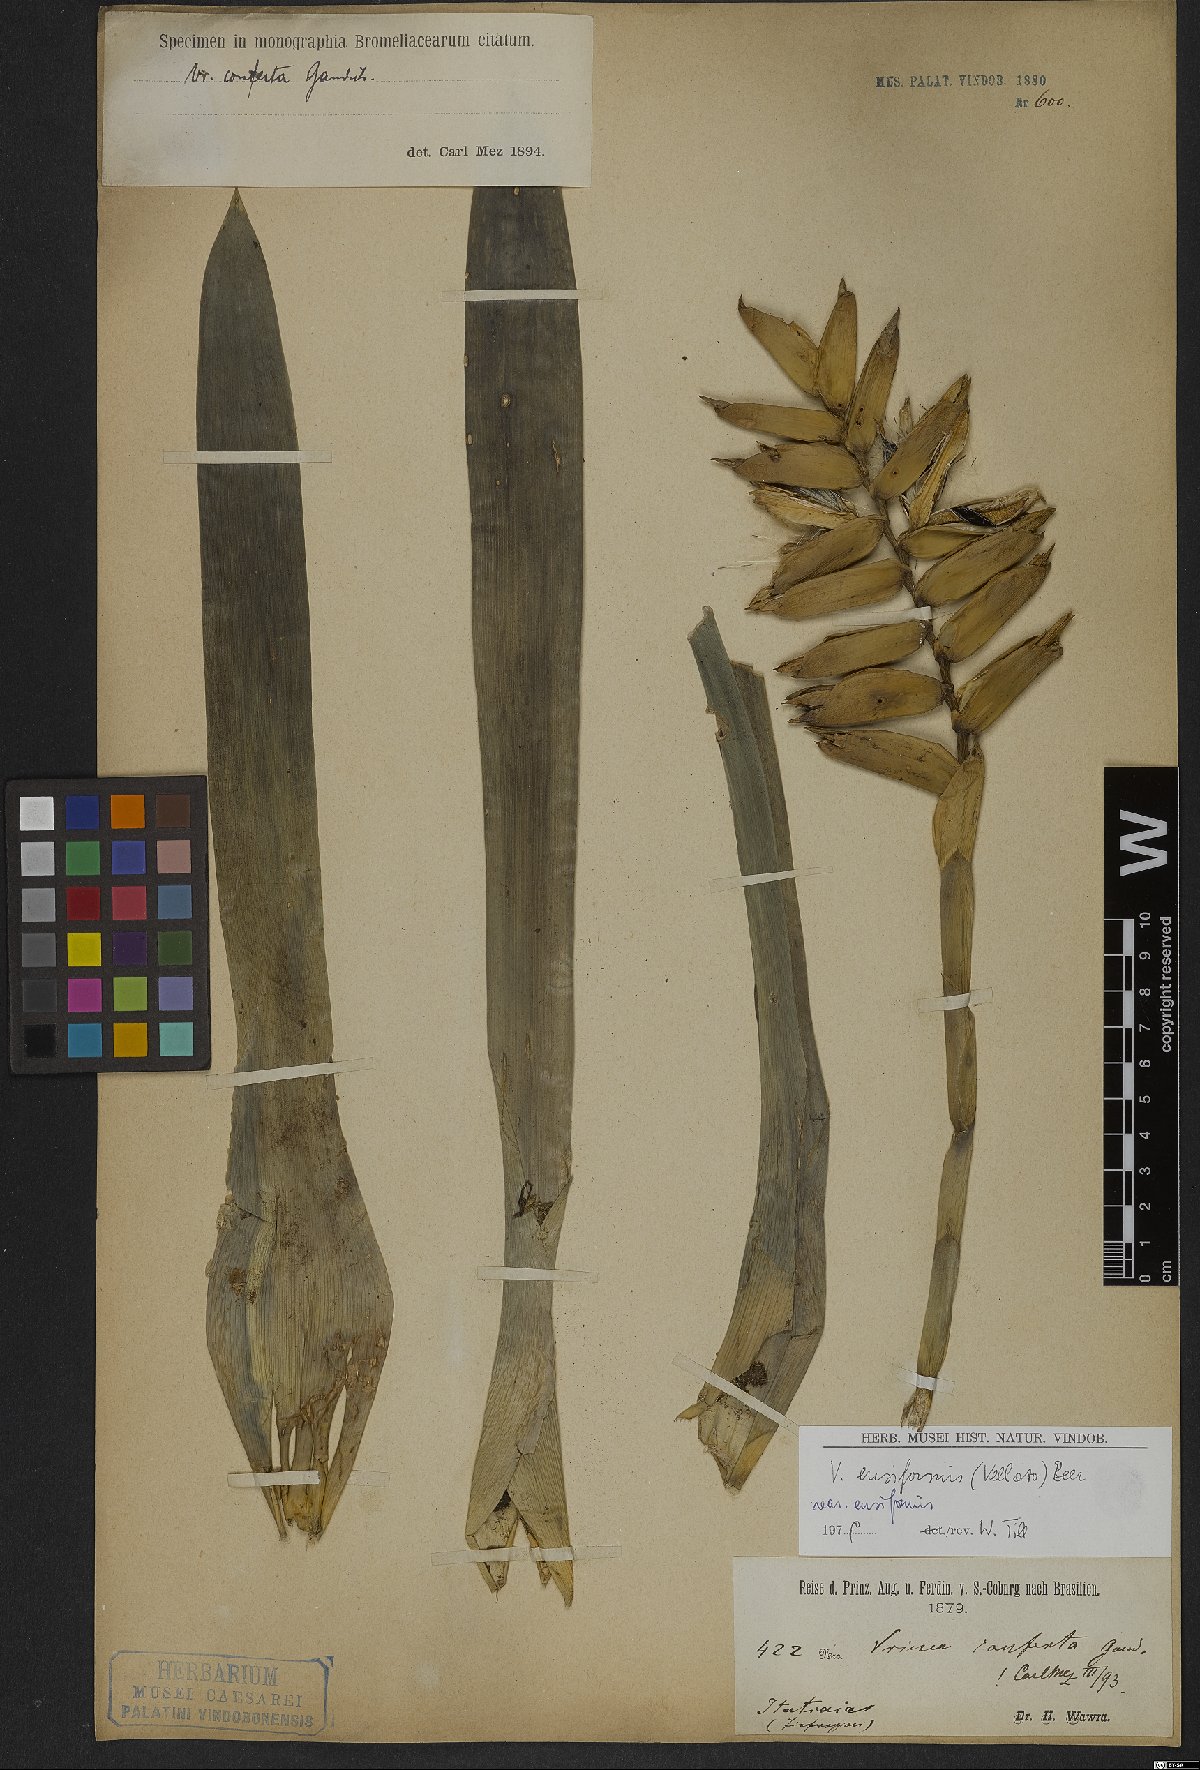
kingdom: Plantae
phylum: Tracheophyta
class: Liliopsida
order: Poales
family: Bromeliaceae
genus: Vriesea
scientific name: Vriesea ensiformis
